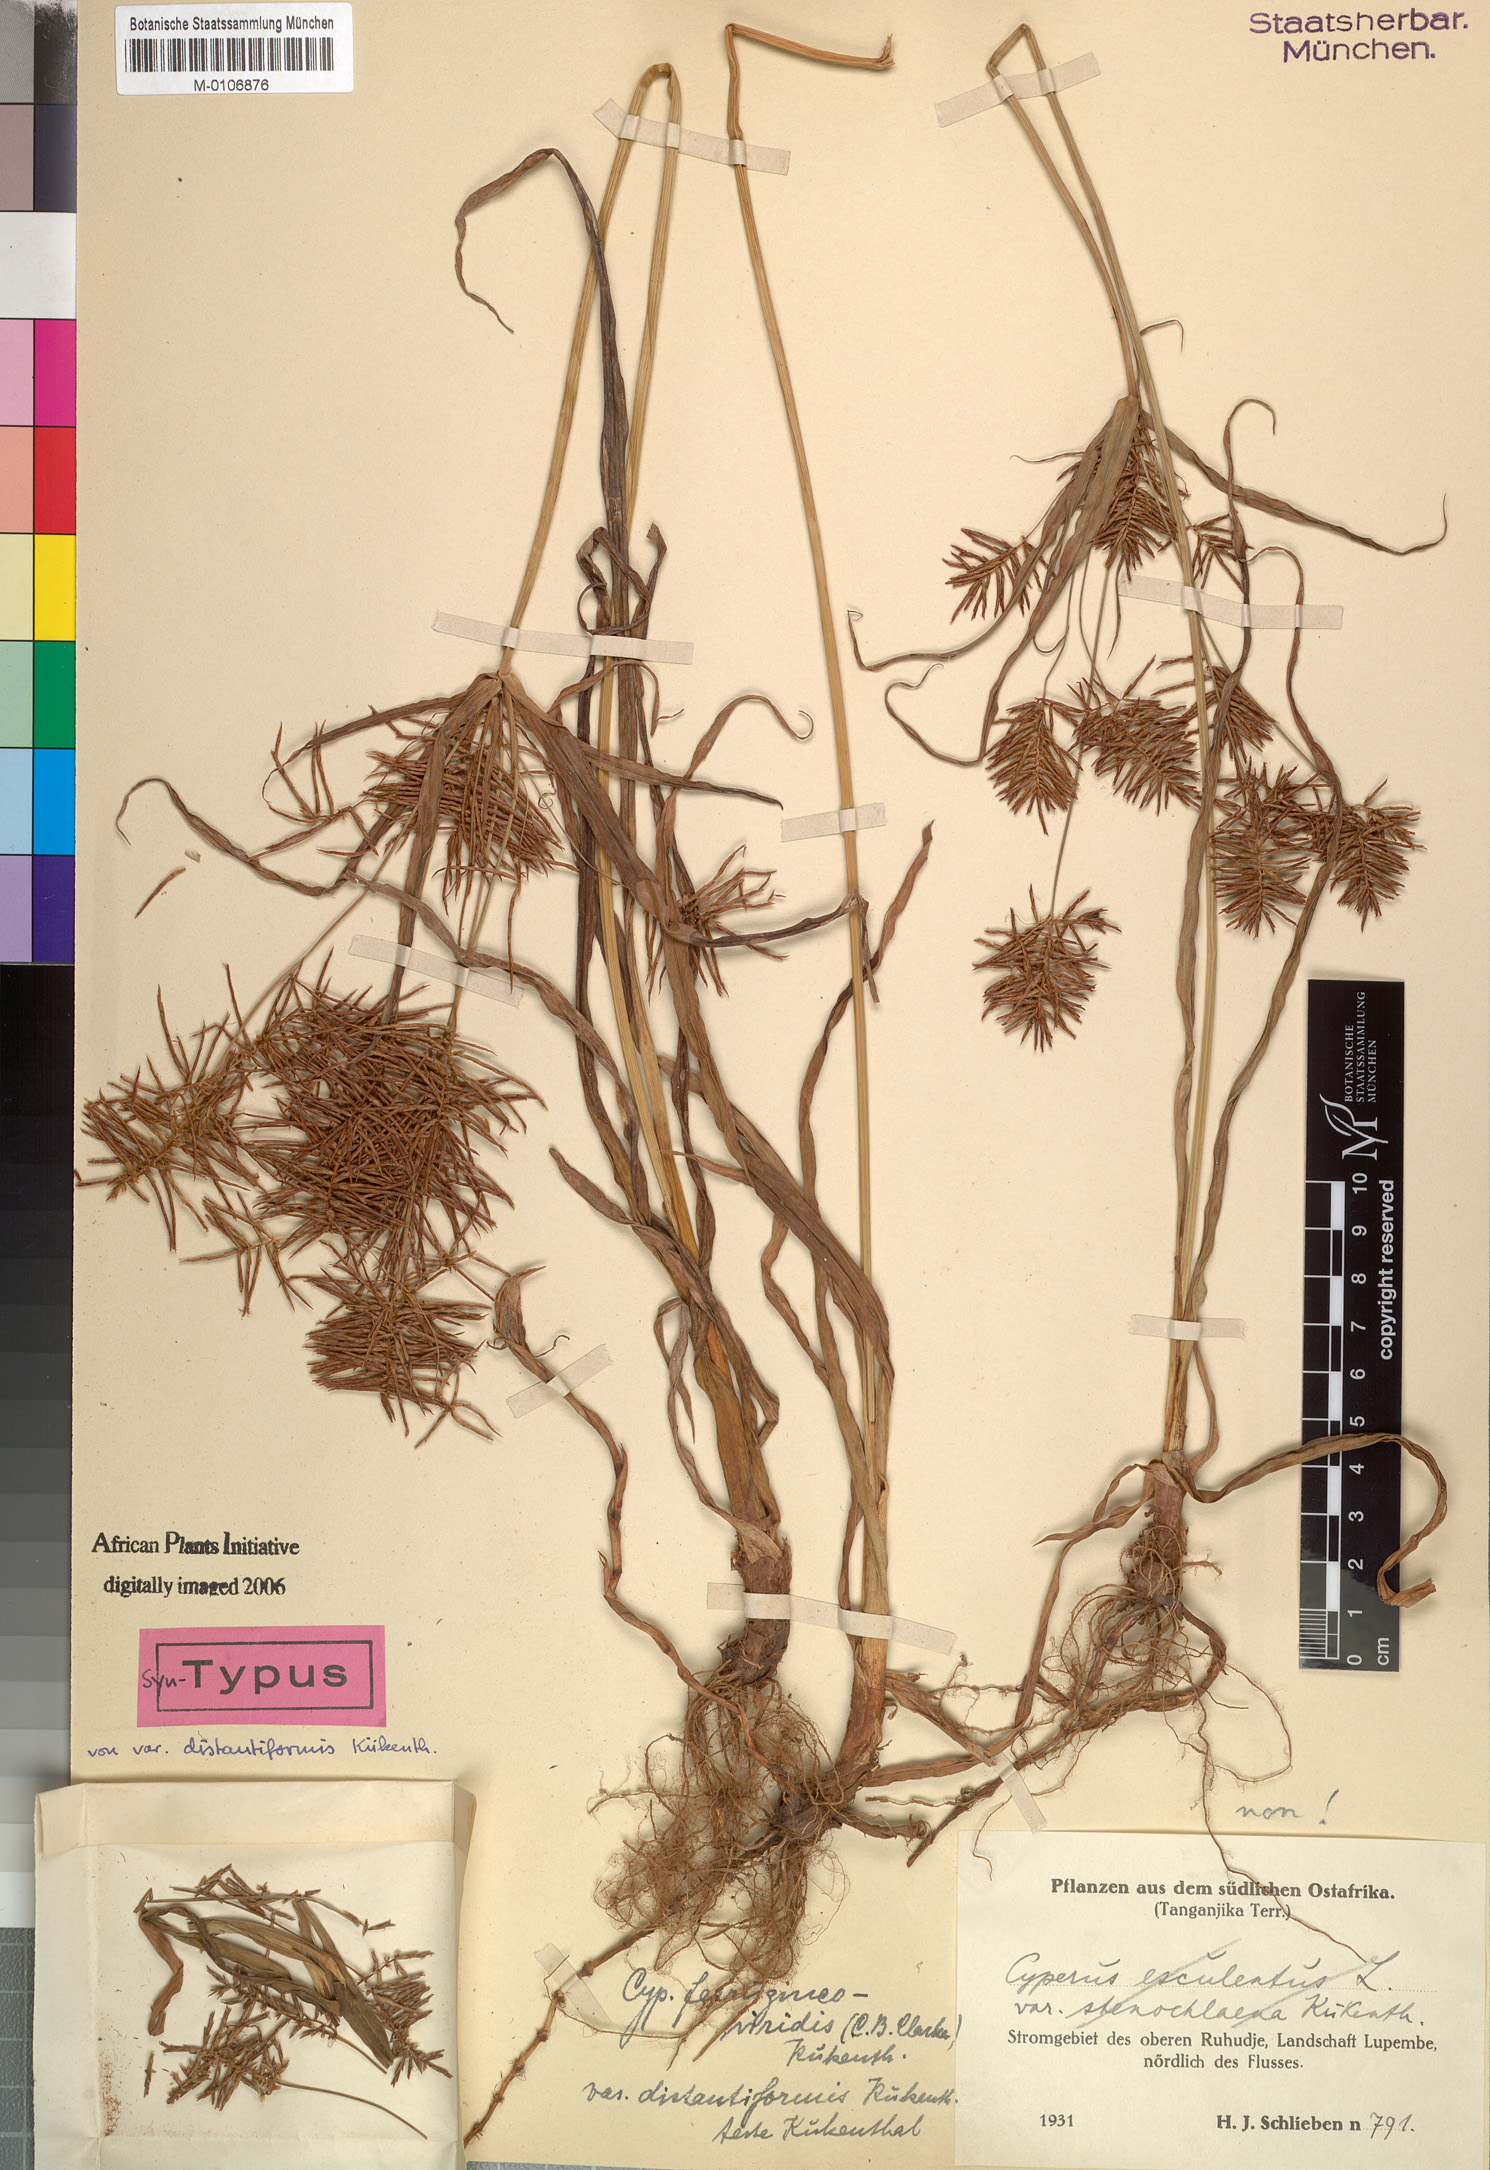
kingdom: Plantae
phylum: Tracheophyta
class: Liliopsida
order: Poales
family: Cyperaceae
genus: Cyperus
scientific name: Cyperus ferrugineoviridis
